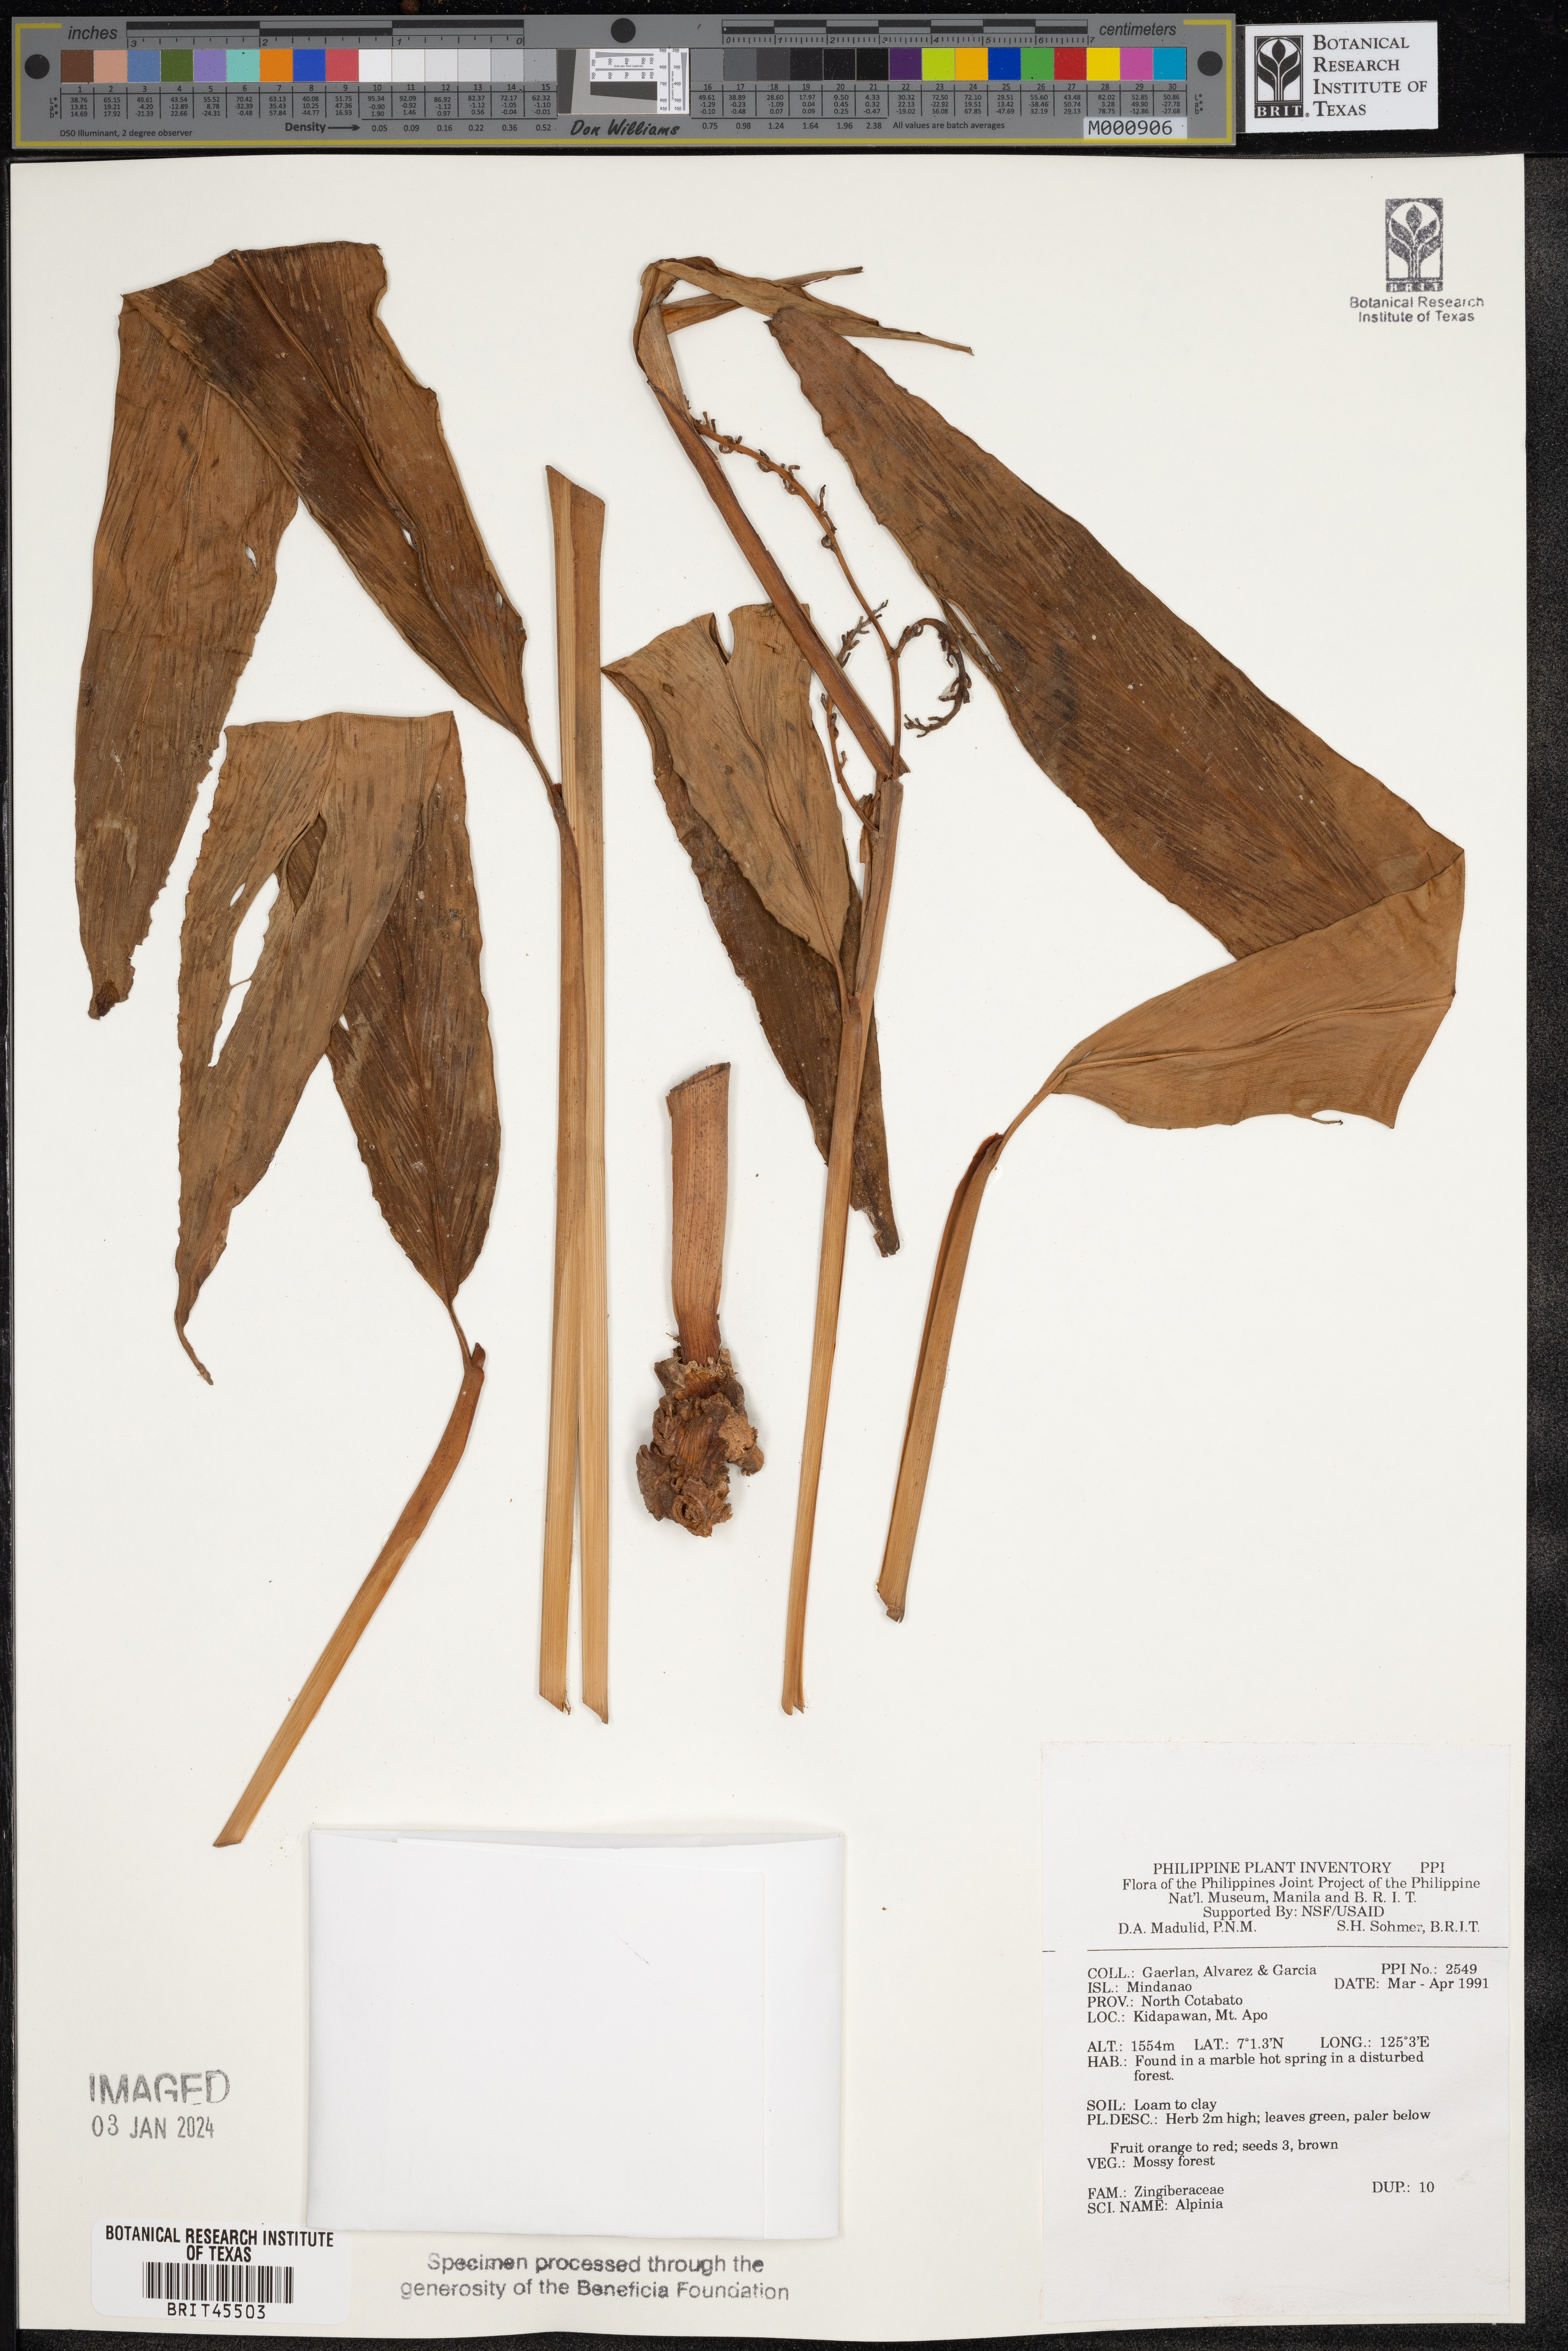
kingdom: Plantae
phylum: Tracheophyta
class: Liliopsida
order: Zingiberales
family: Zingiberaceae
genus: Alpinia
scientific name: Alpinia
